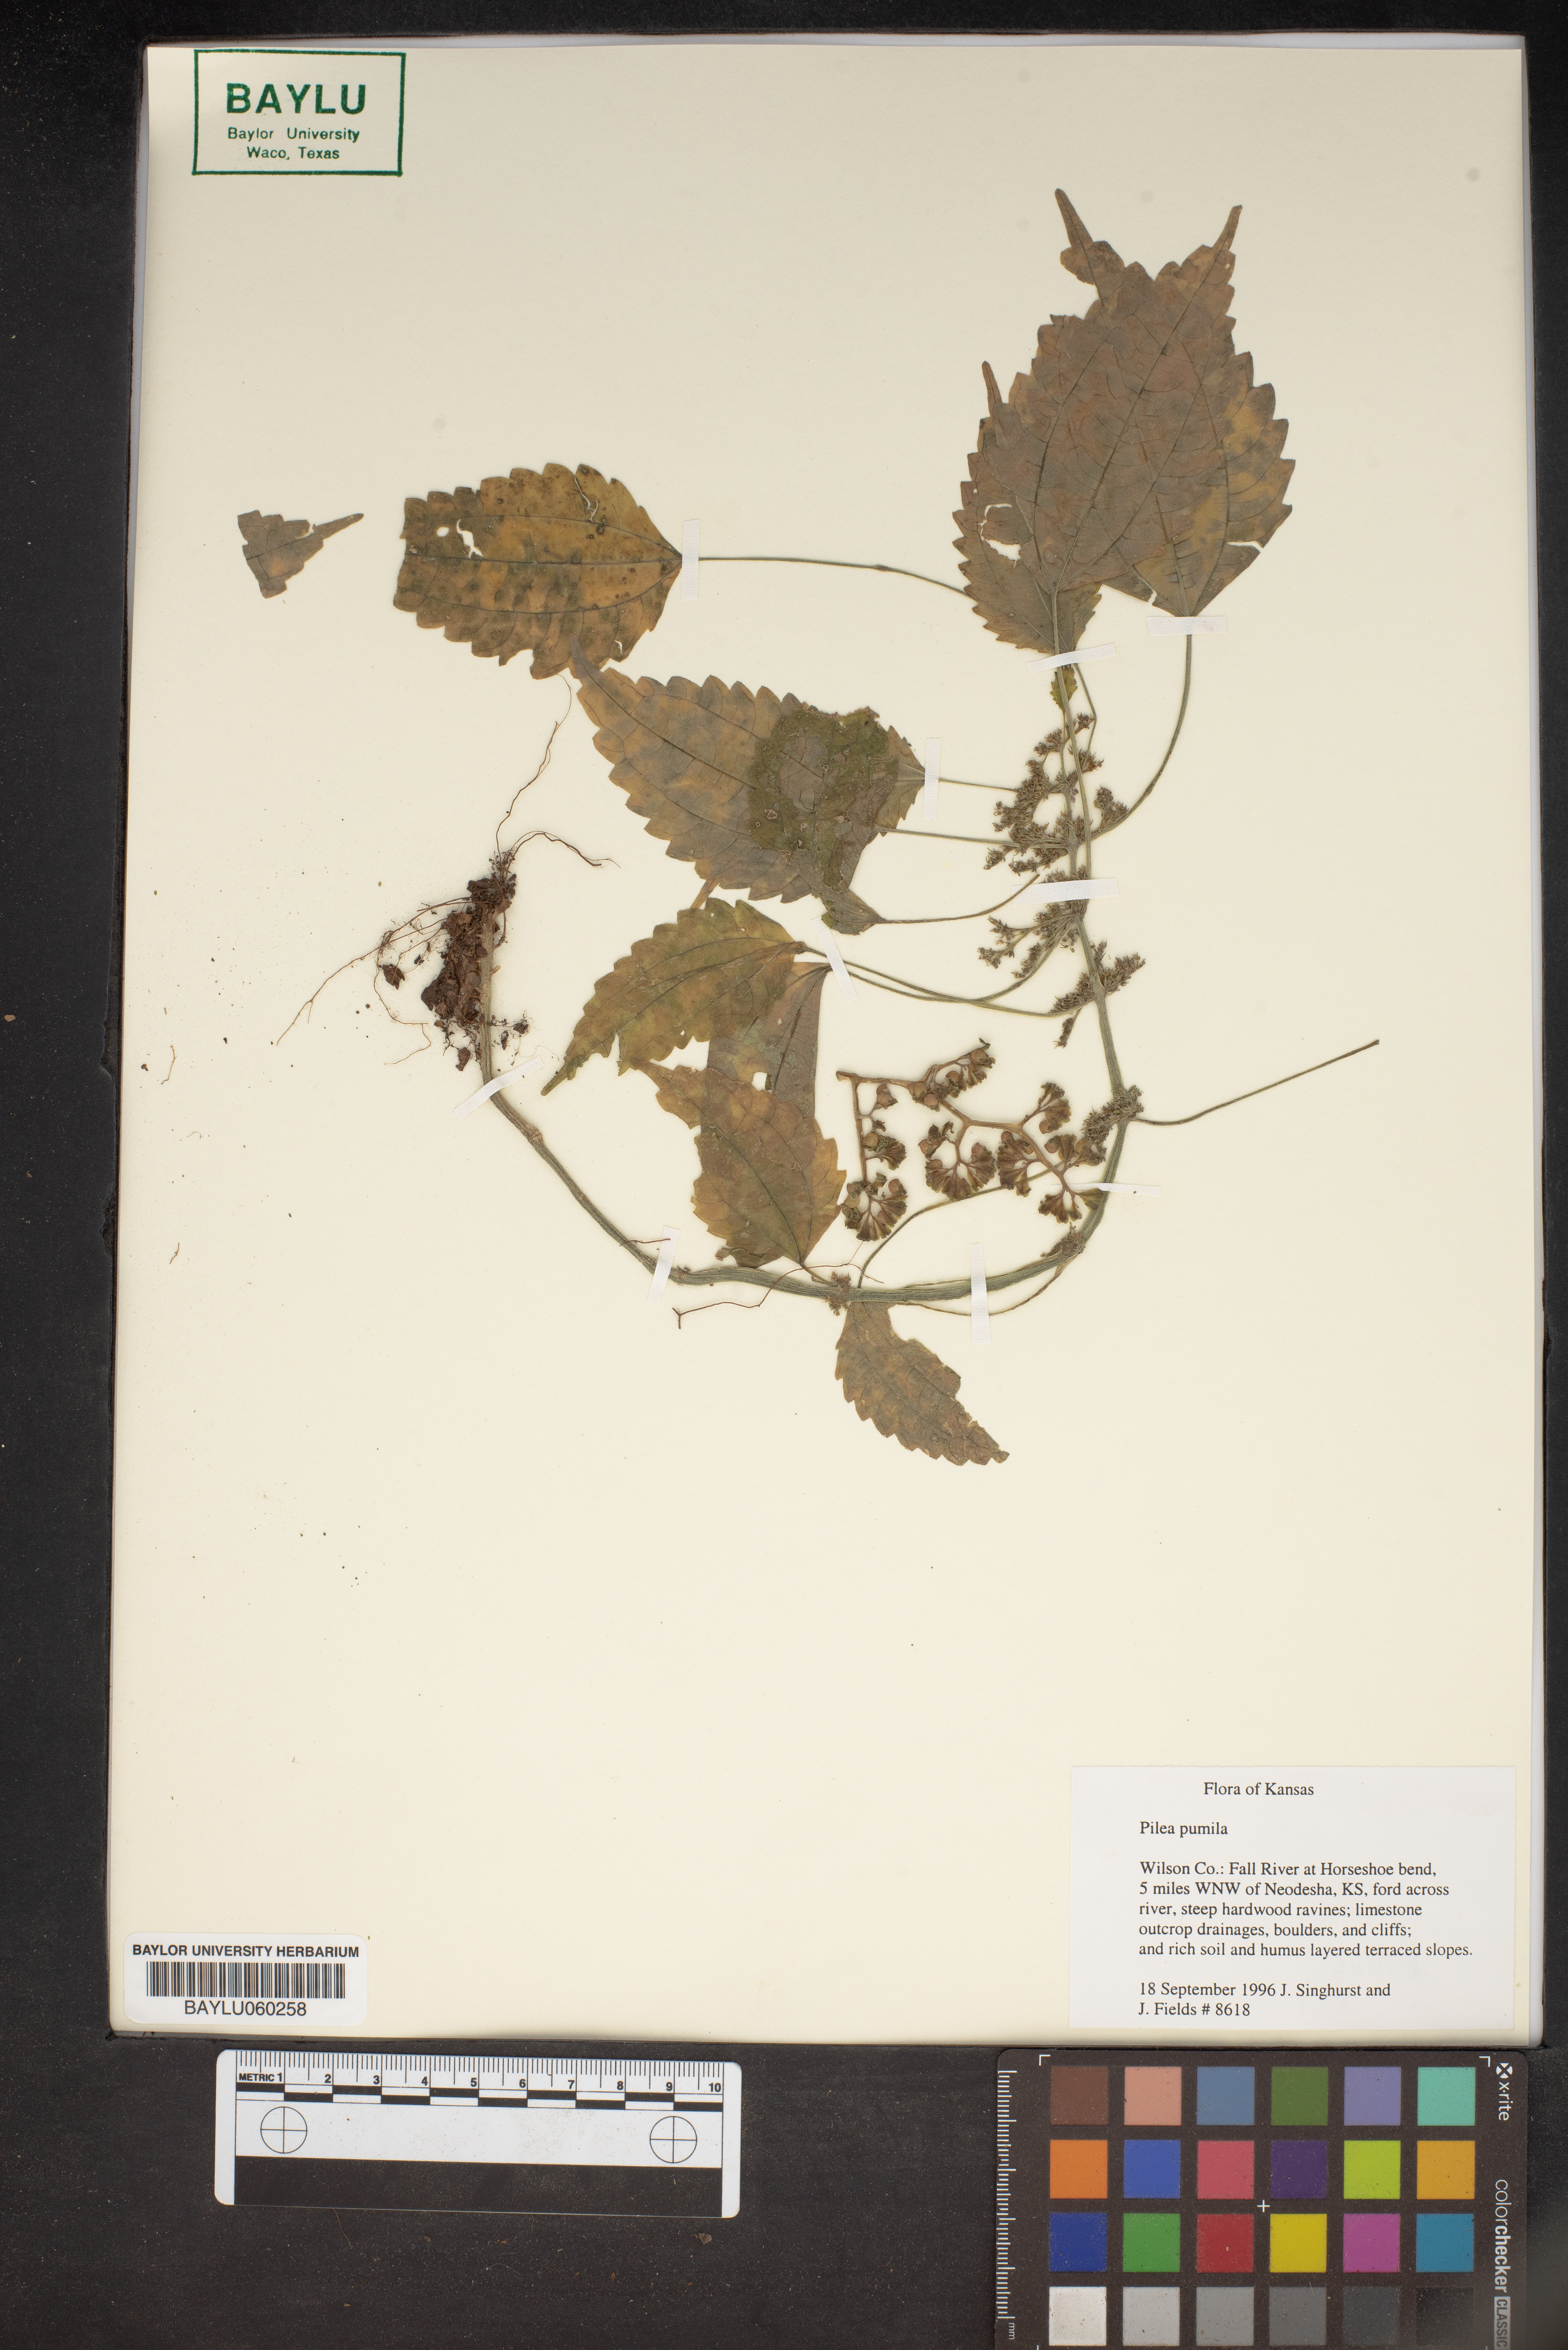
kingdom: Plantae
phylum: Tracheophyta
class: Magnoliopsida
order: Rosales
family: Urticaceae
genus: Pilea
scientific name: Pilea pumila
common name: Clearweed
